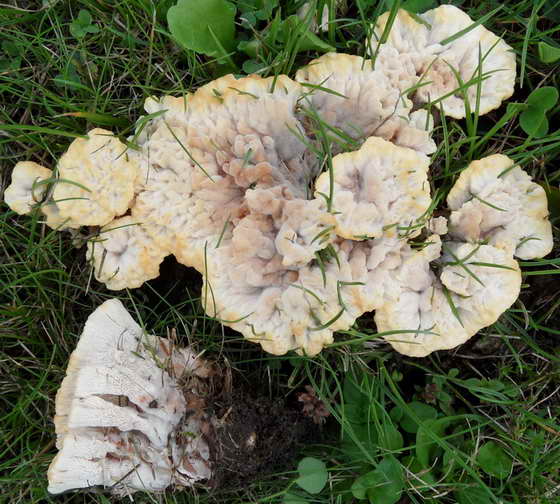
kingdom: Fungi
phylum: Basidiomycota
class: Agaricomycetes
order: Polyporales
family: Podoscyphaceae
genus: Abortiporus
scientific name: Abortiporus biennis
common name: rødmende pjalteporesvamp
